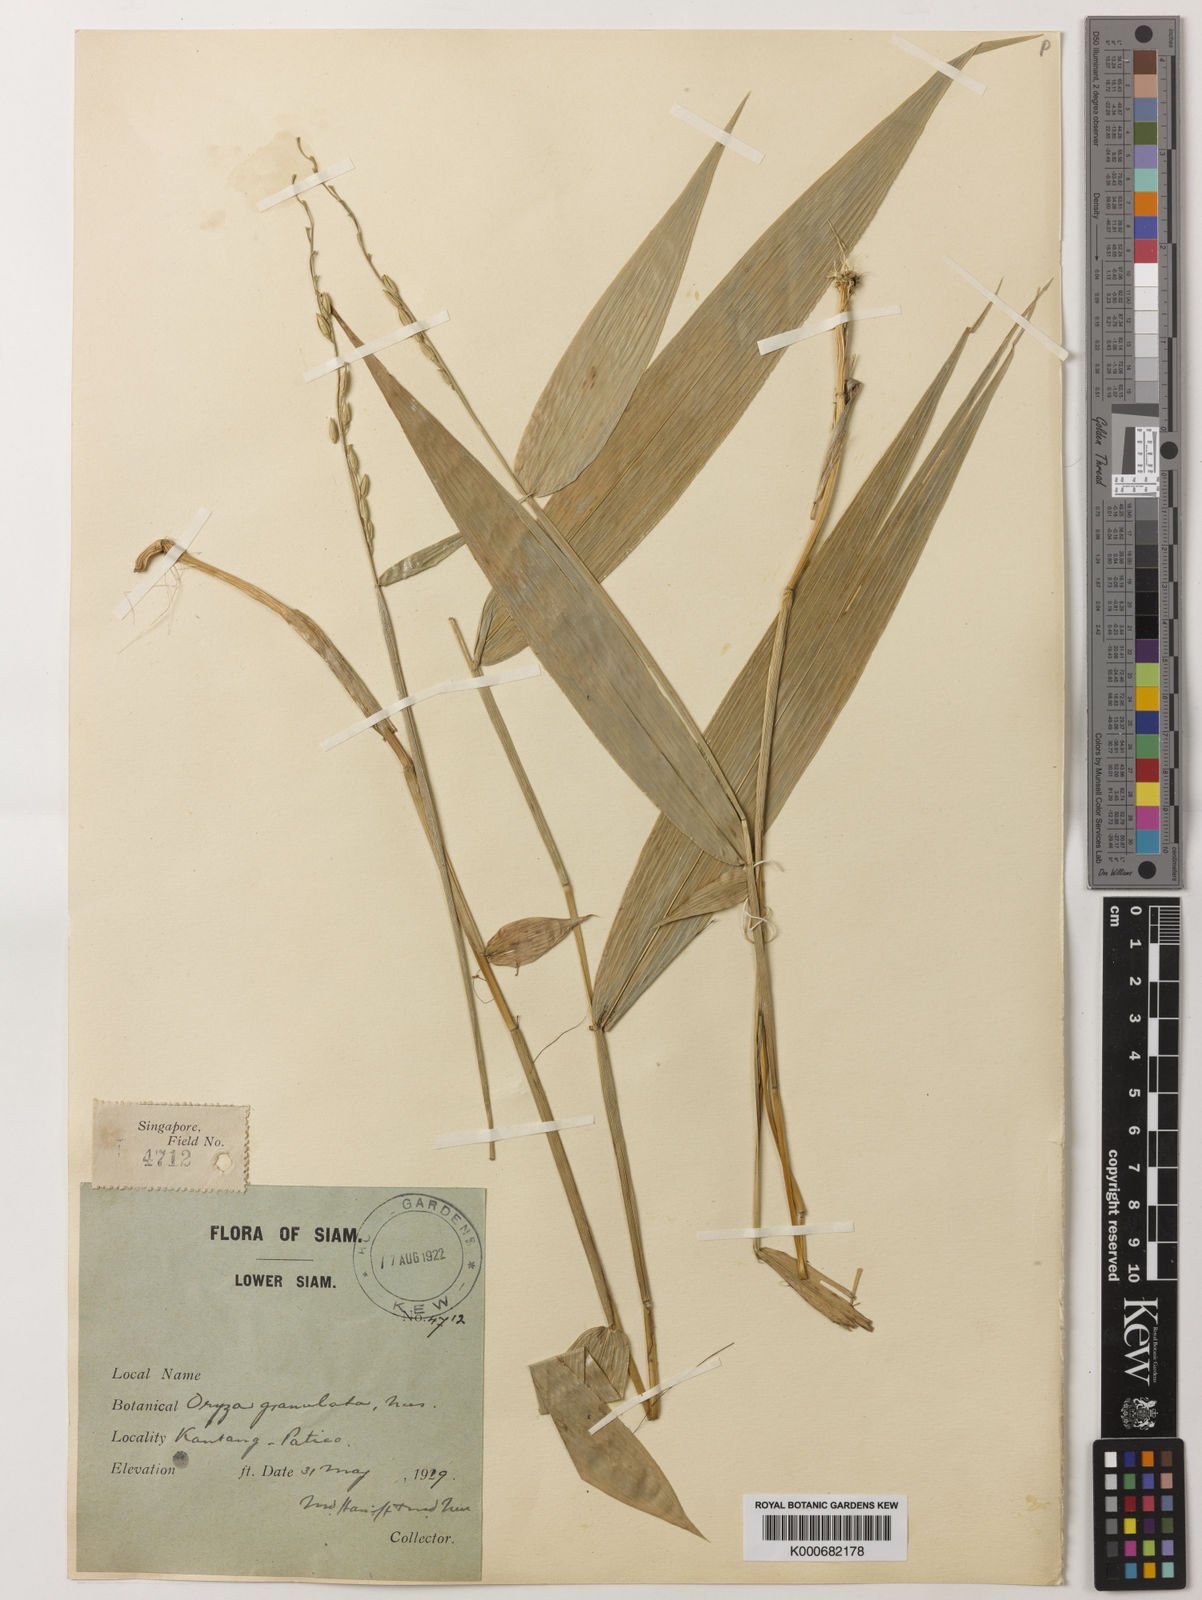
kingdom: Plantae
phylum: Tracheophyta
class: Liliopsida
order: Poales
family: Poaceae
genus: Oryza
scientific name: Oryza meyeriana
